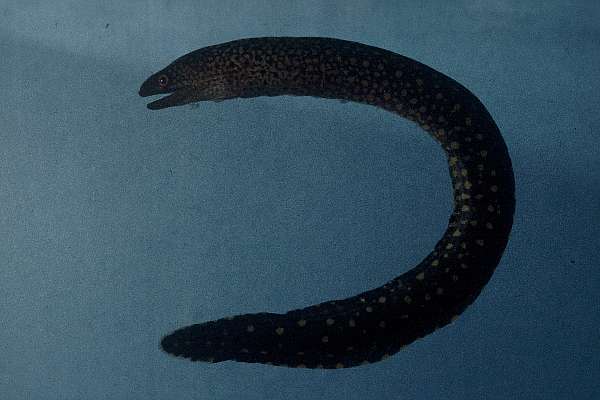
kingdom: Animalia
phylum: Chordata
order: Anguilliformes
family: Muraenidae
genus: Gymnothorax
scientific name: Gymnothorax eurostus
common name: Stout moray
